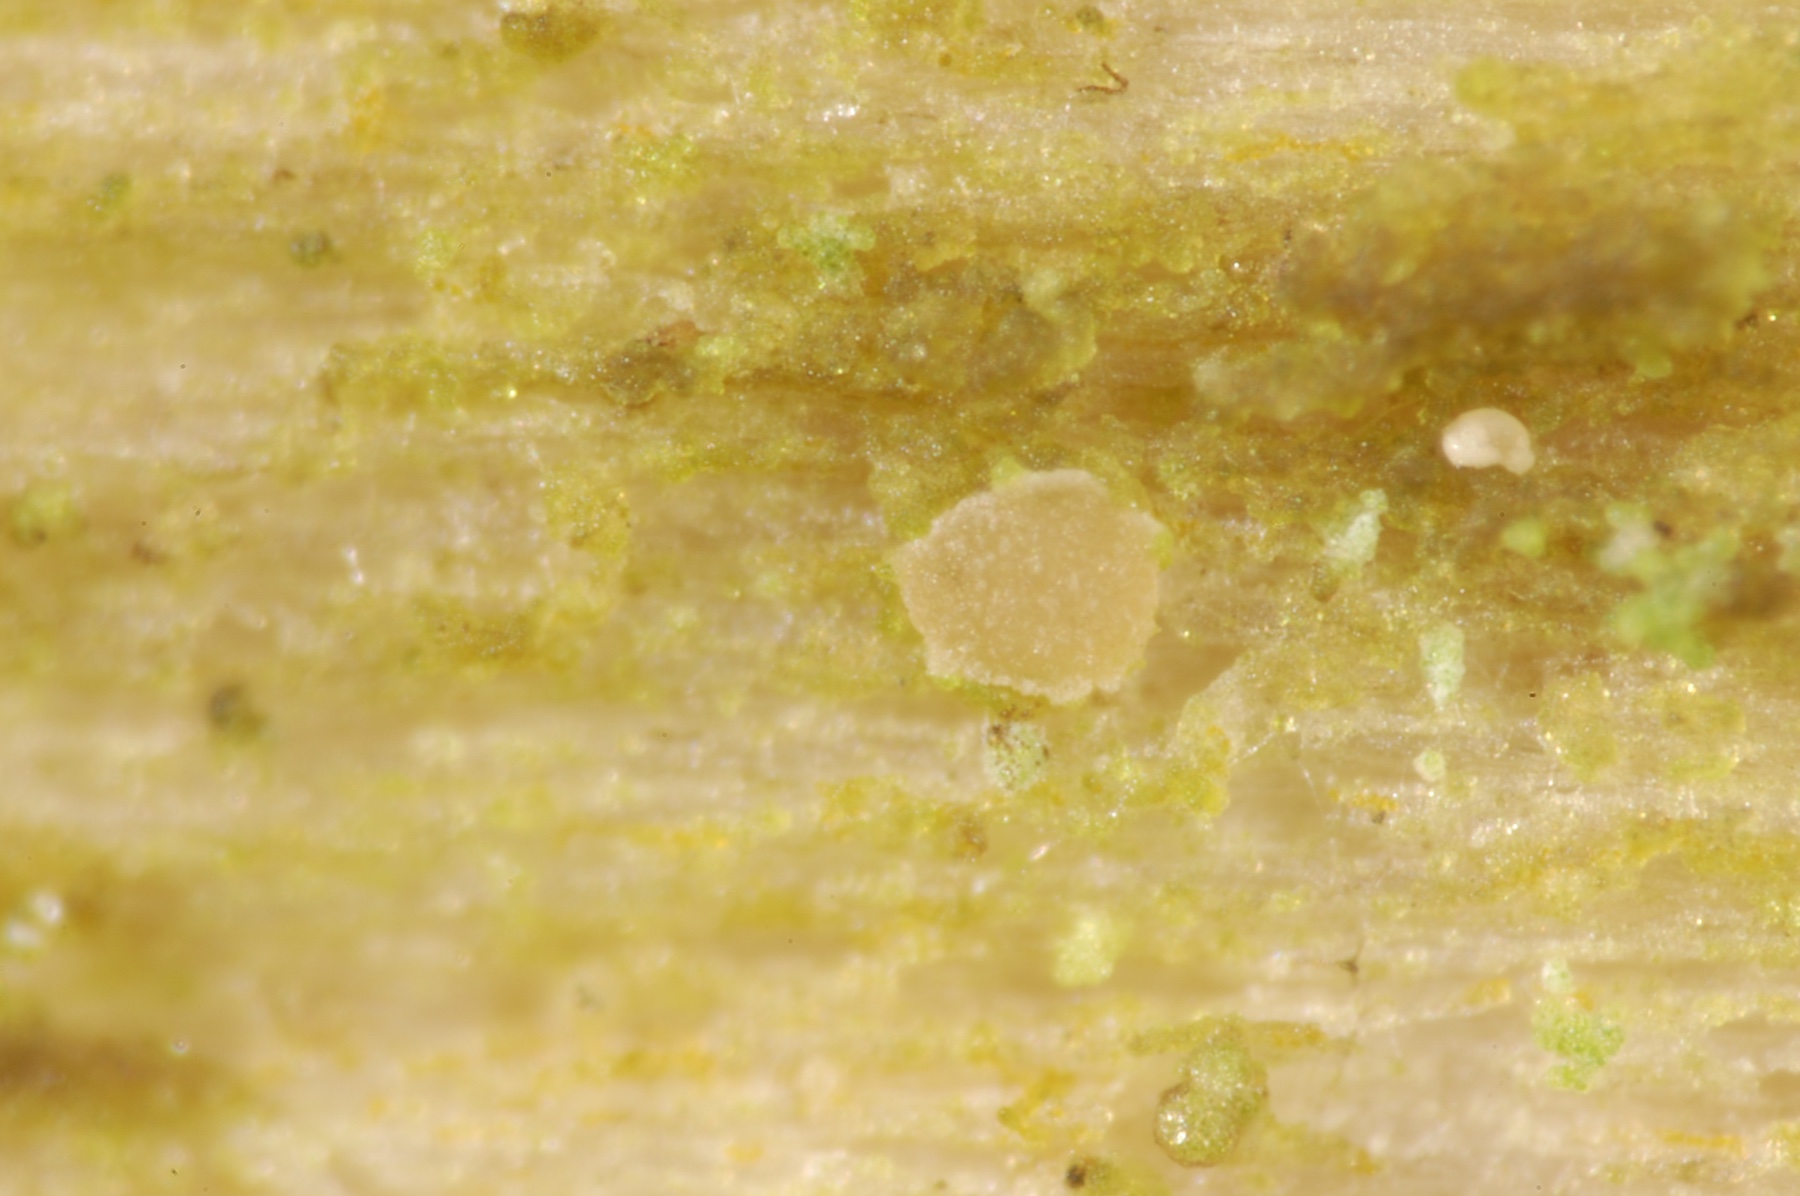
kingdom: Fungi
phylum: Ascomycota
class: Leotiomycetes
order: Helotiales
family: Pezizellaceae
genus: Pezizella
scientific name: Pezizella uvidula
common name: ved-orangeskive
